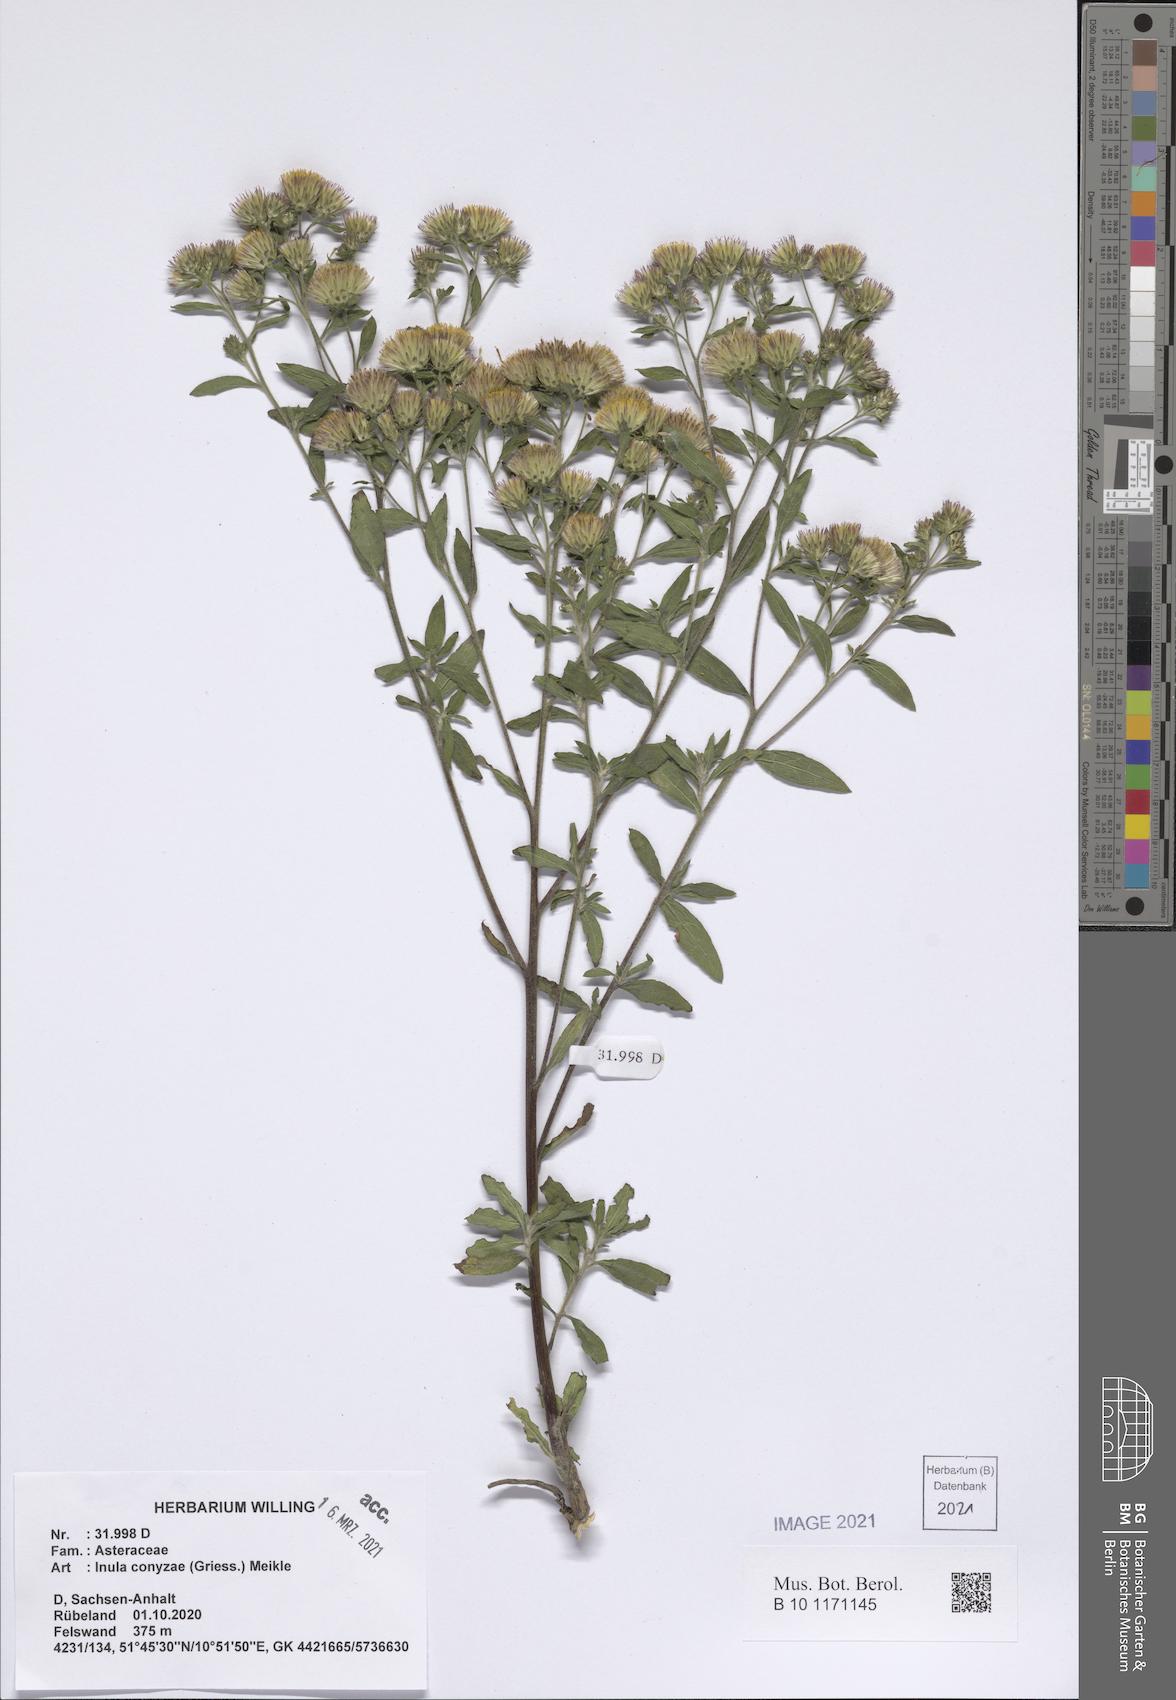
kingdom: Plantae
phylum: Tracheophyta
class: Magnoliopsida
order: Asterales
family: Asteraceae
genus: Pentanema
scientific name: Pentanema squarrosum
